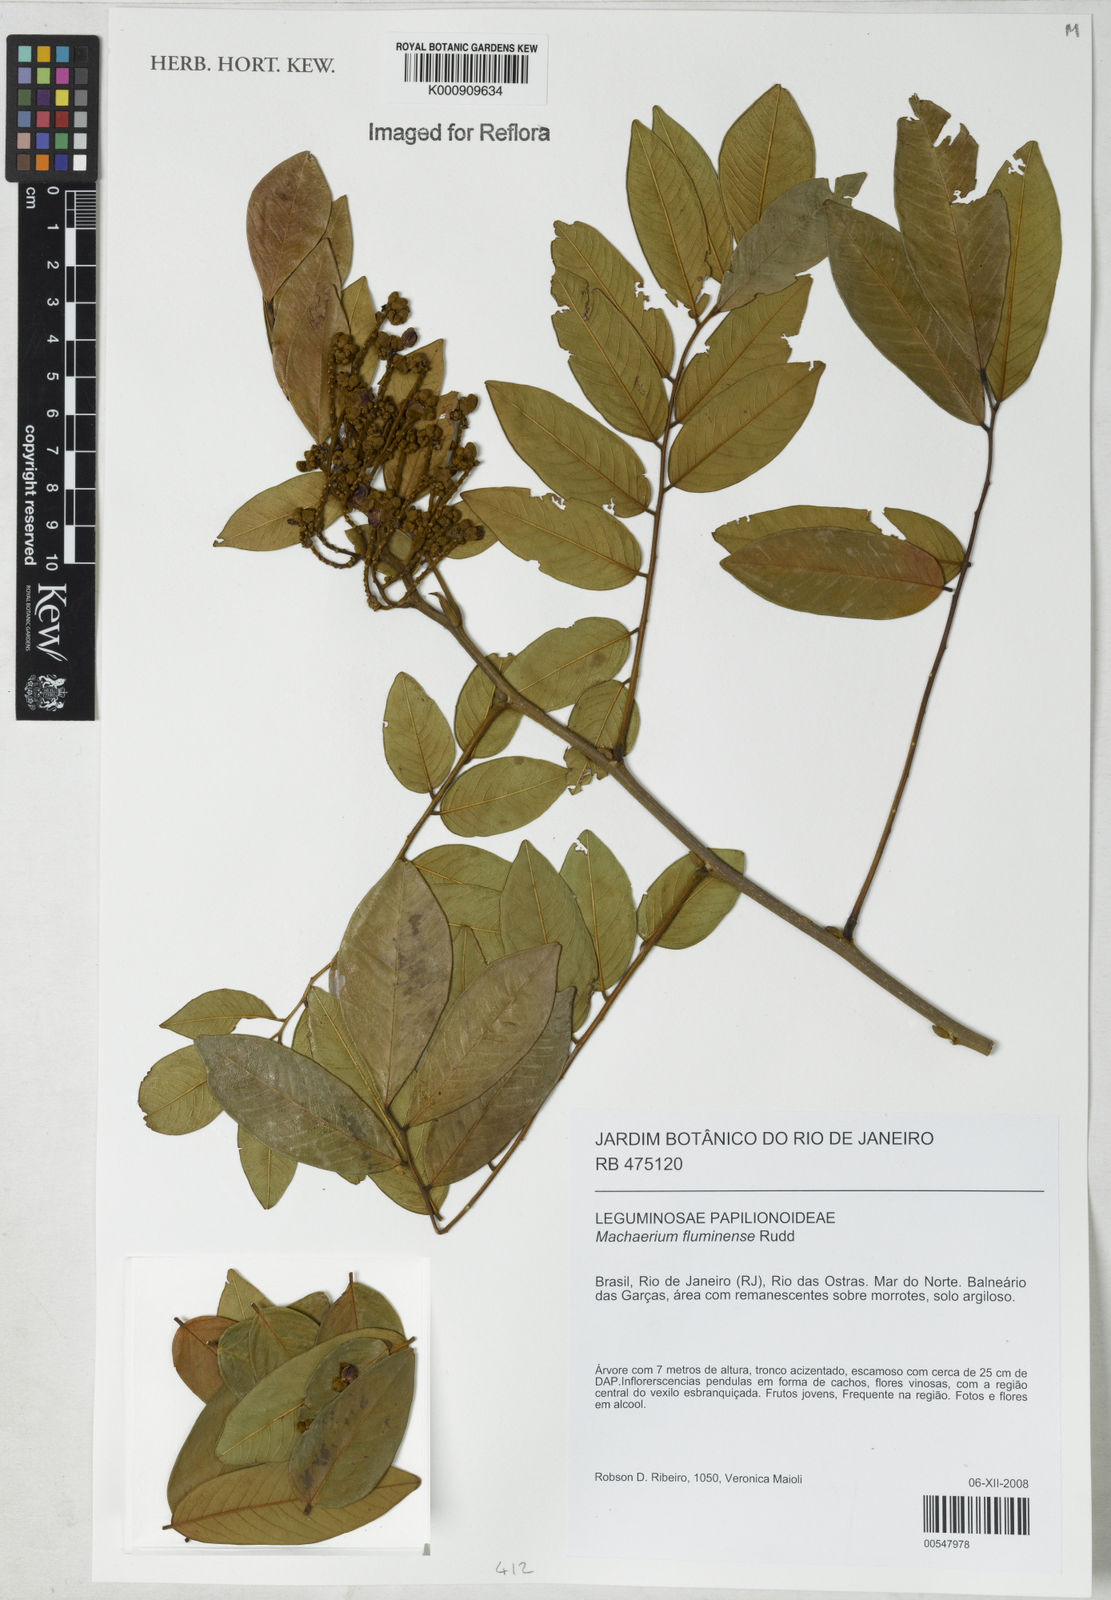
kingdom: Plantae
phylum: Tracheophyta
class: Magnoliopsida
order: Fabales
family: Fabaceae
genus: Machaerium
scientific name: Machaerium incorruptibile
